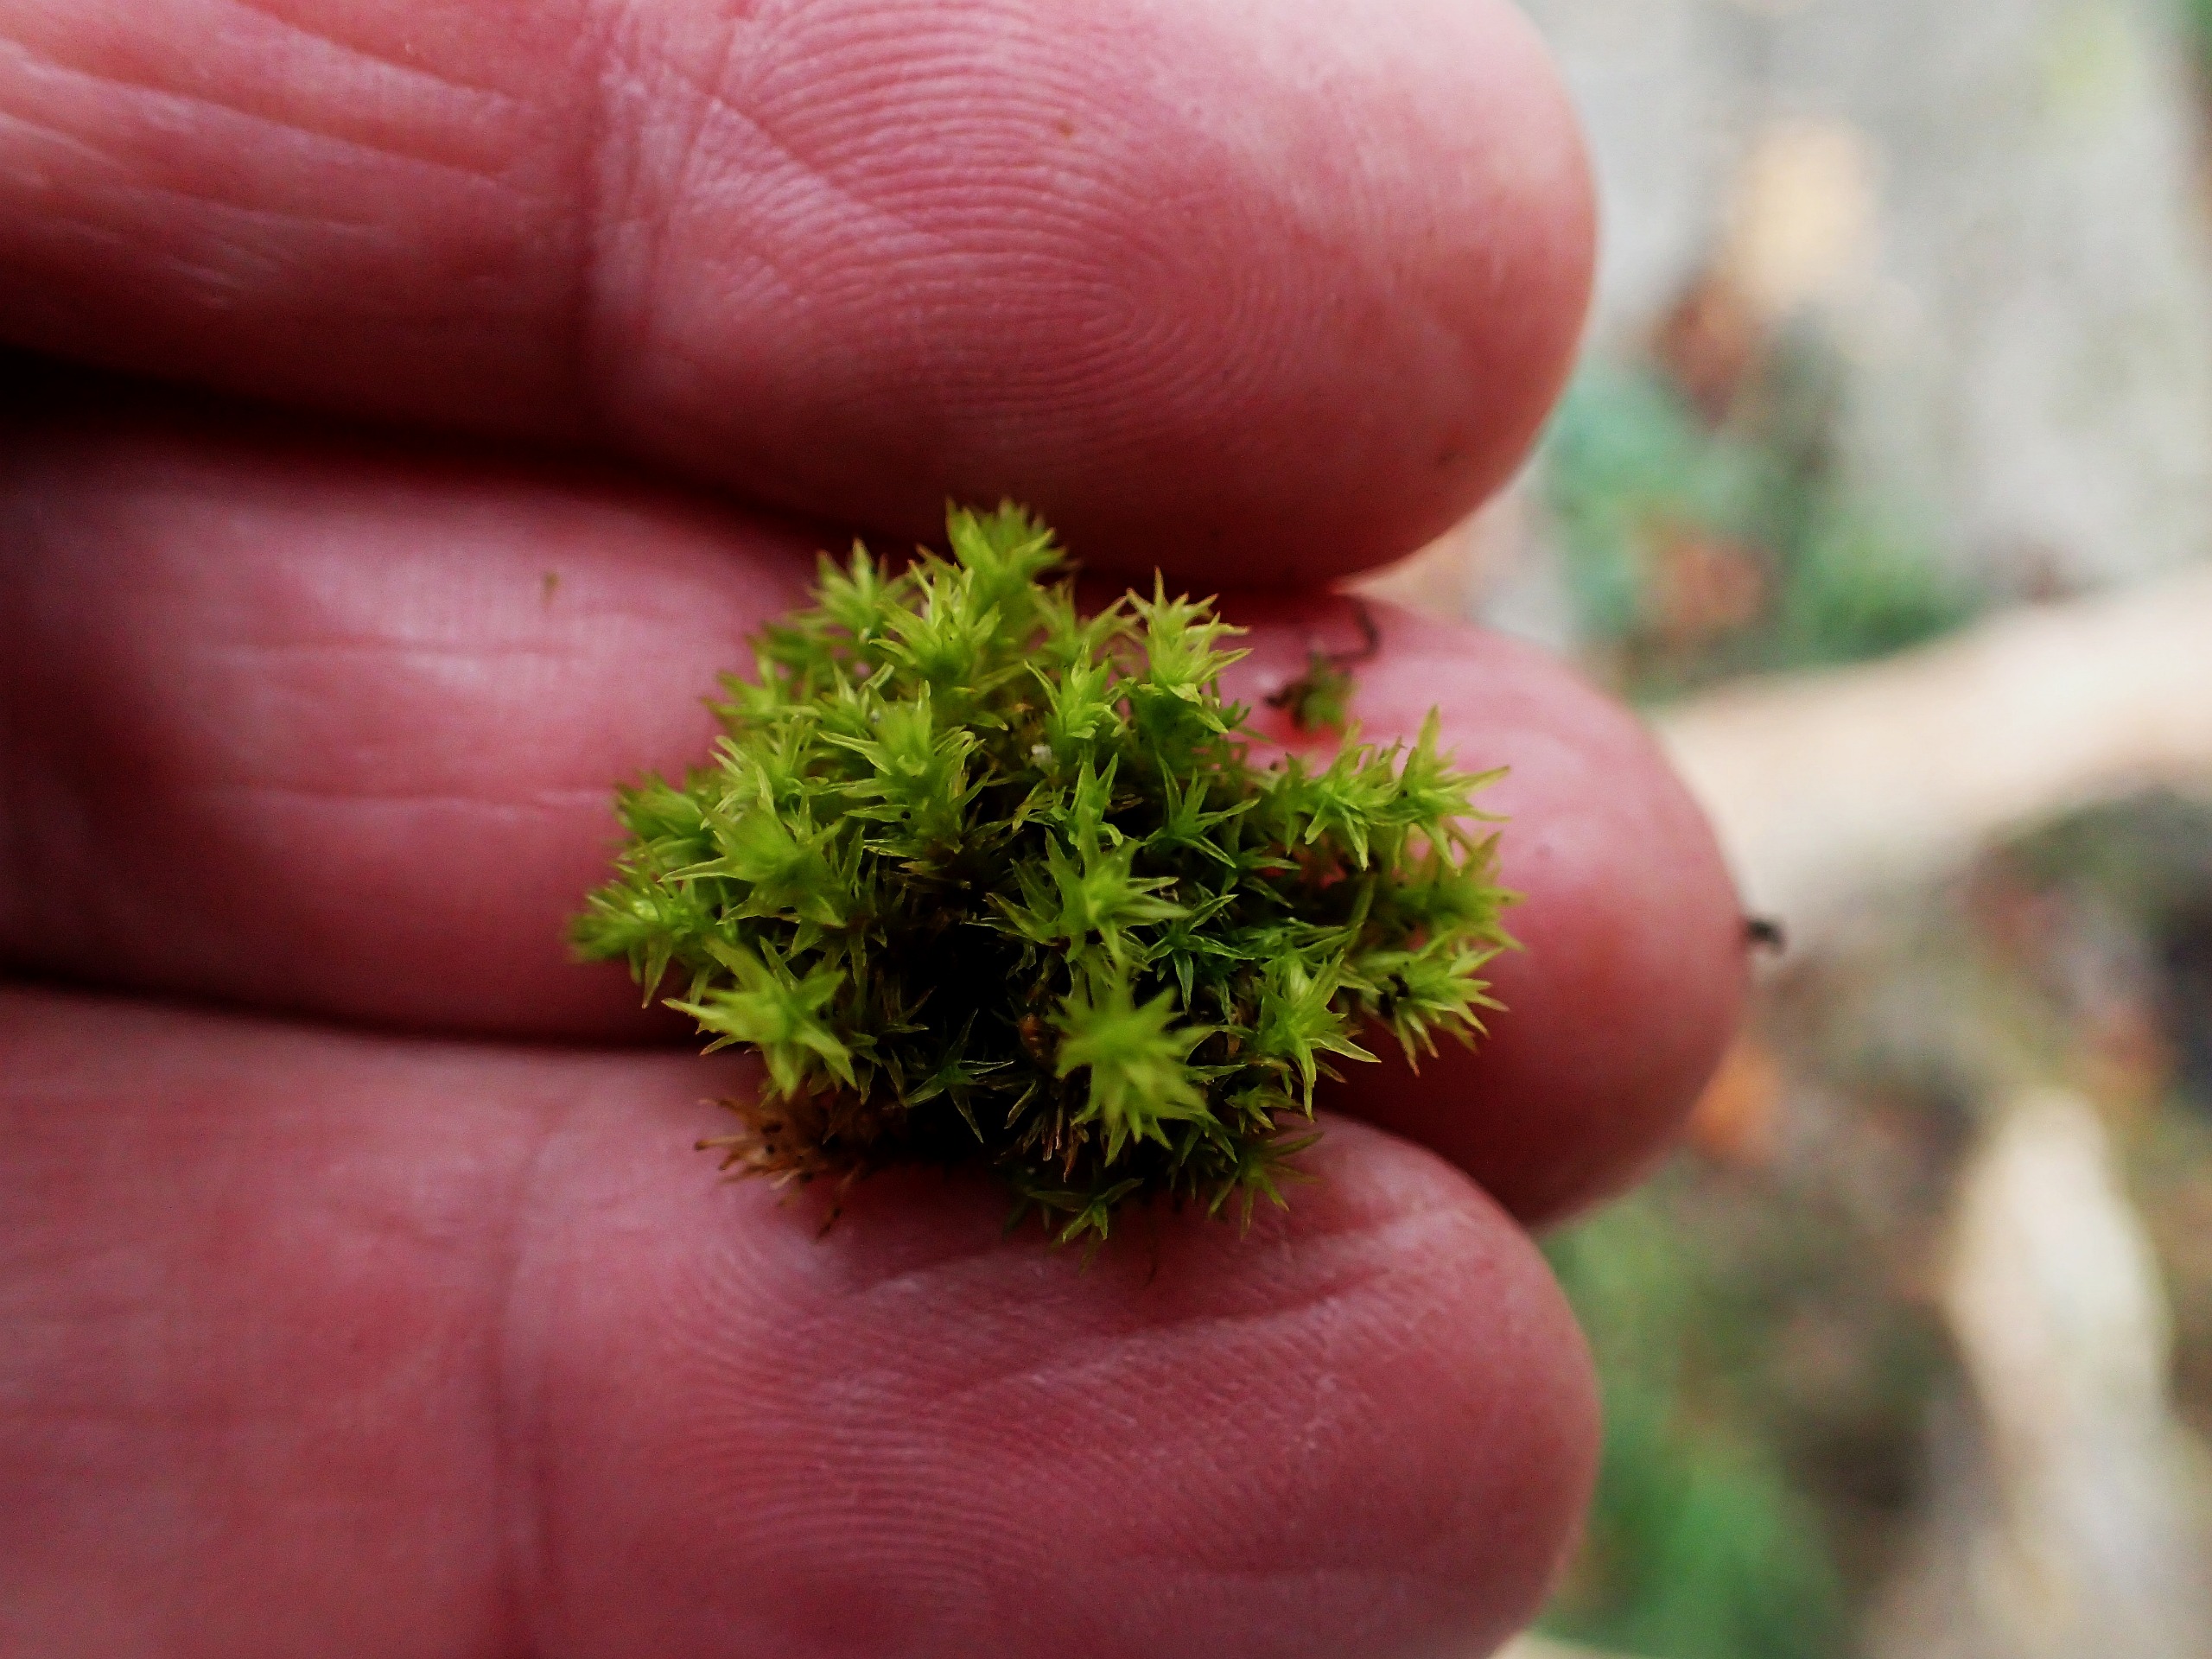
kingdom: Plantae
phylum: Bryophyta
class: Bryopsida
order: Orthotrichales
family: Orthotrichaceae
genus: Orthotrichum
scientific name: Orthotrichum
